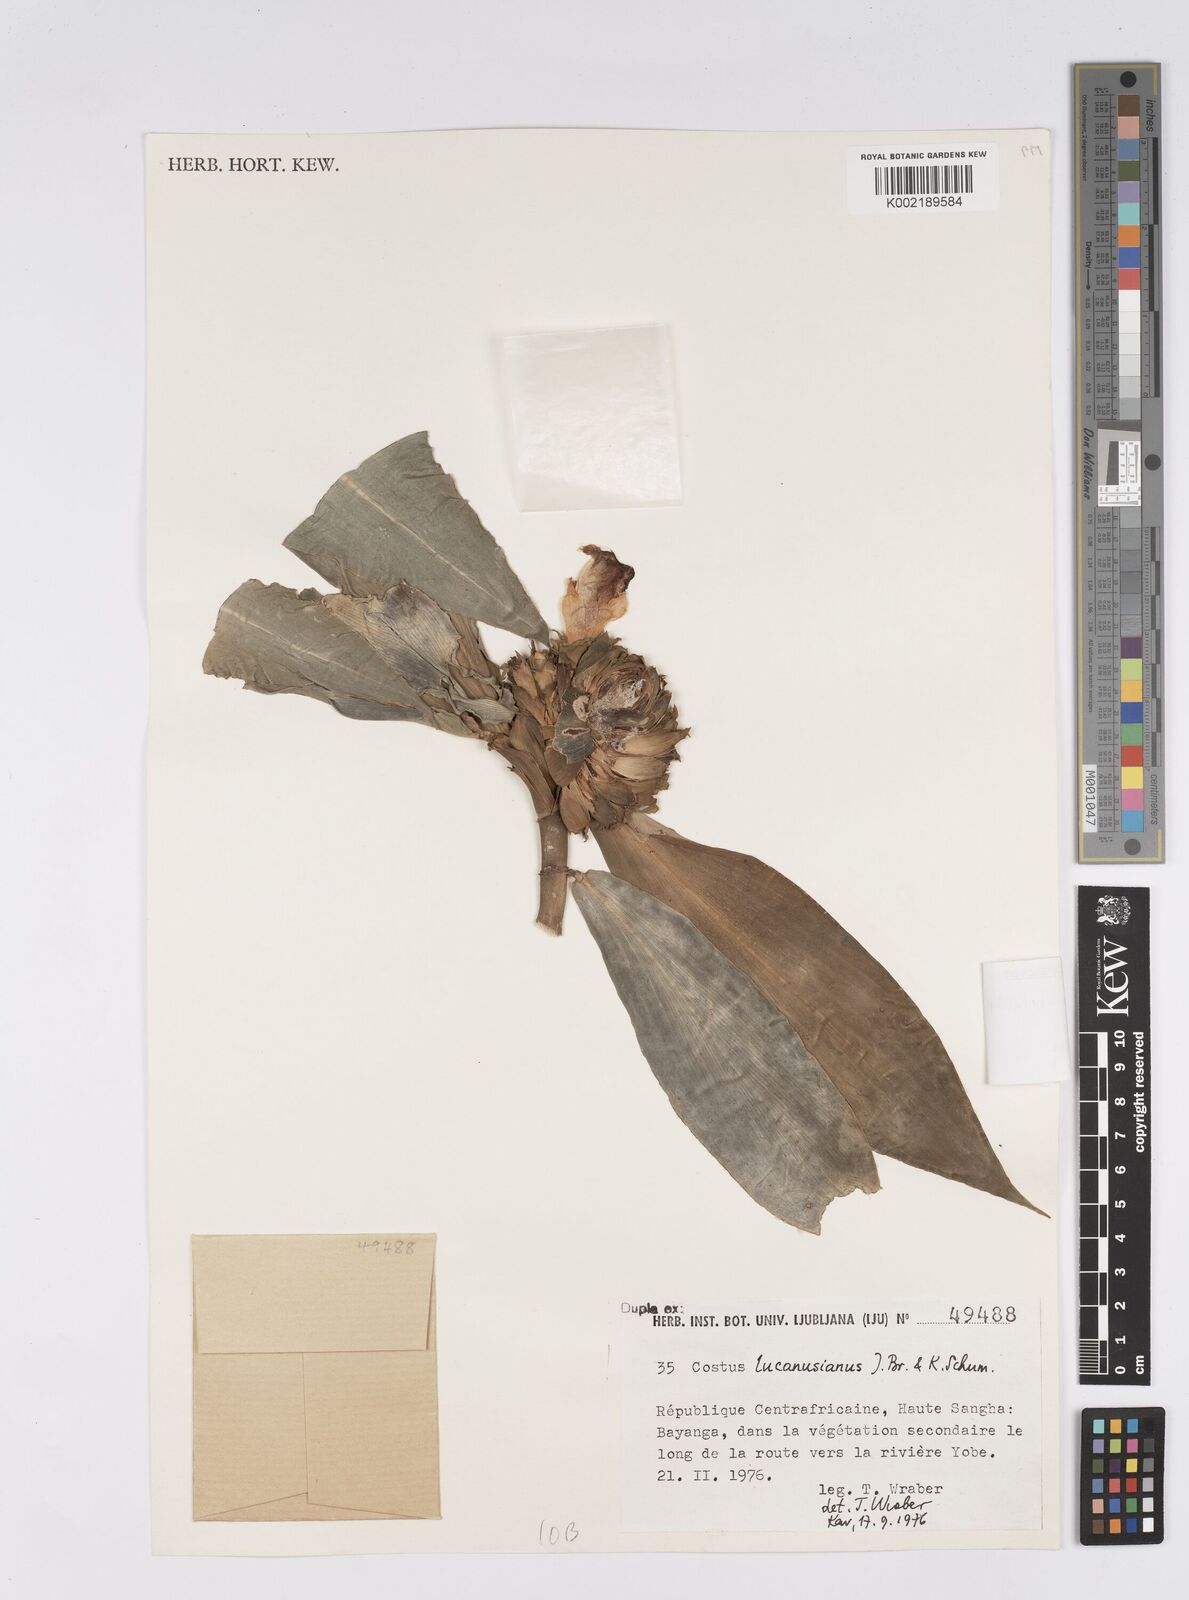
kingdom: Plantae
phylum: Tracheophyta
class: Liliopsida
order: Zingiberales
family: Costaceae
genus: Costus
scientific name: Costus lucanusianus
